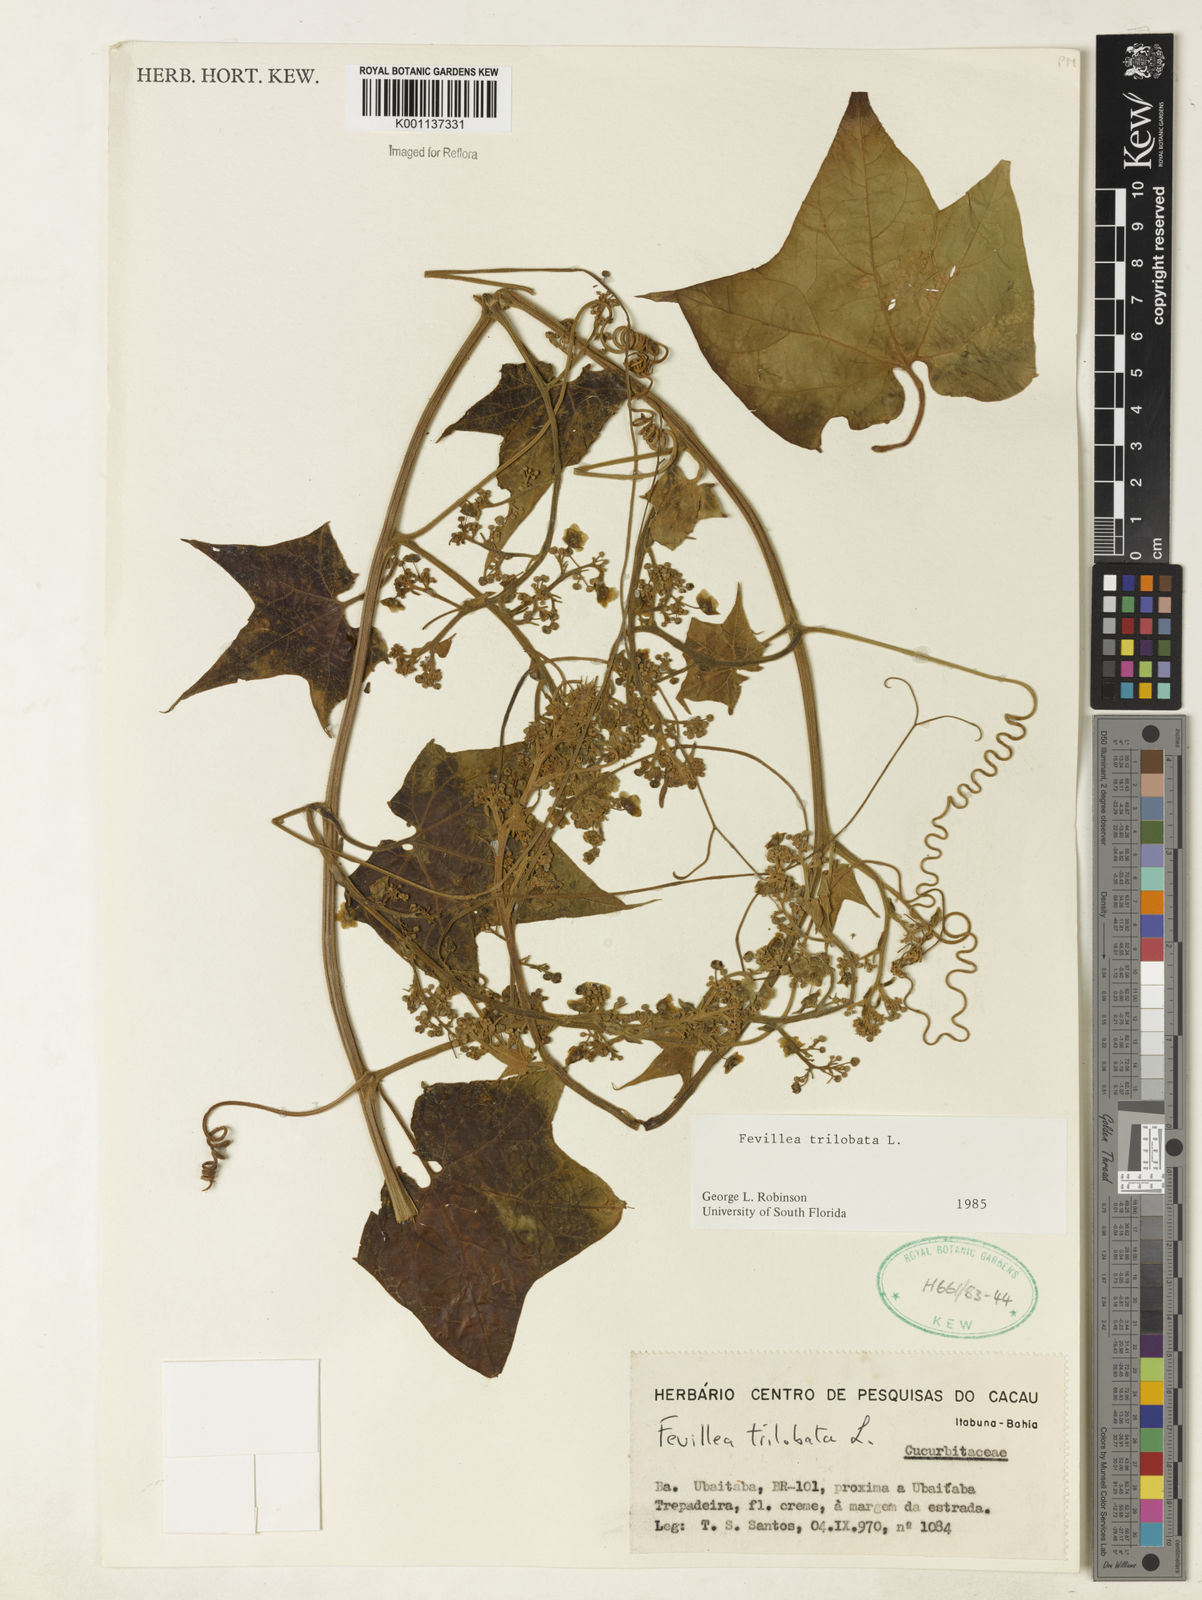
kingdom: Plantae
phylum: Tracheophyta
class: Magnoliopsida
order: Cucurbitales
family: Cucurbitaceae
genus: Fevillea
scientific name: Fevillea trilobata
